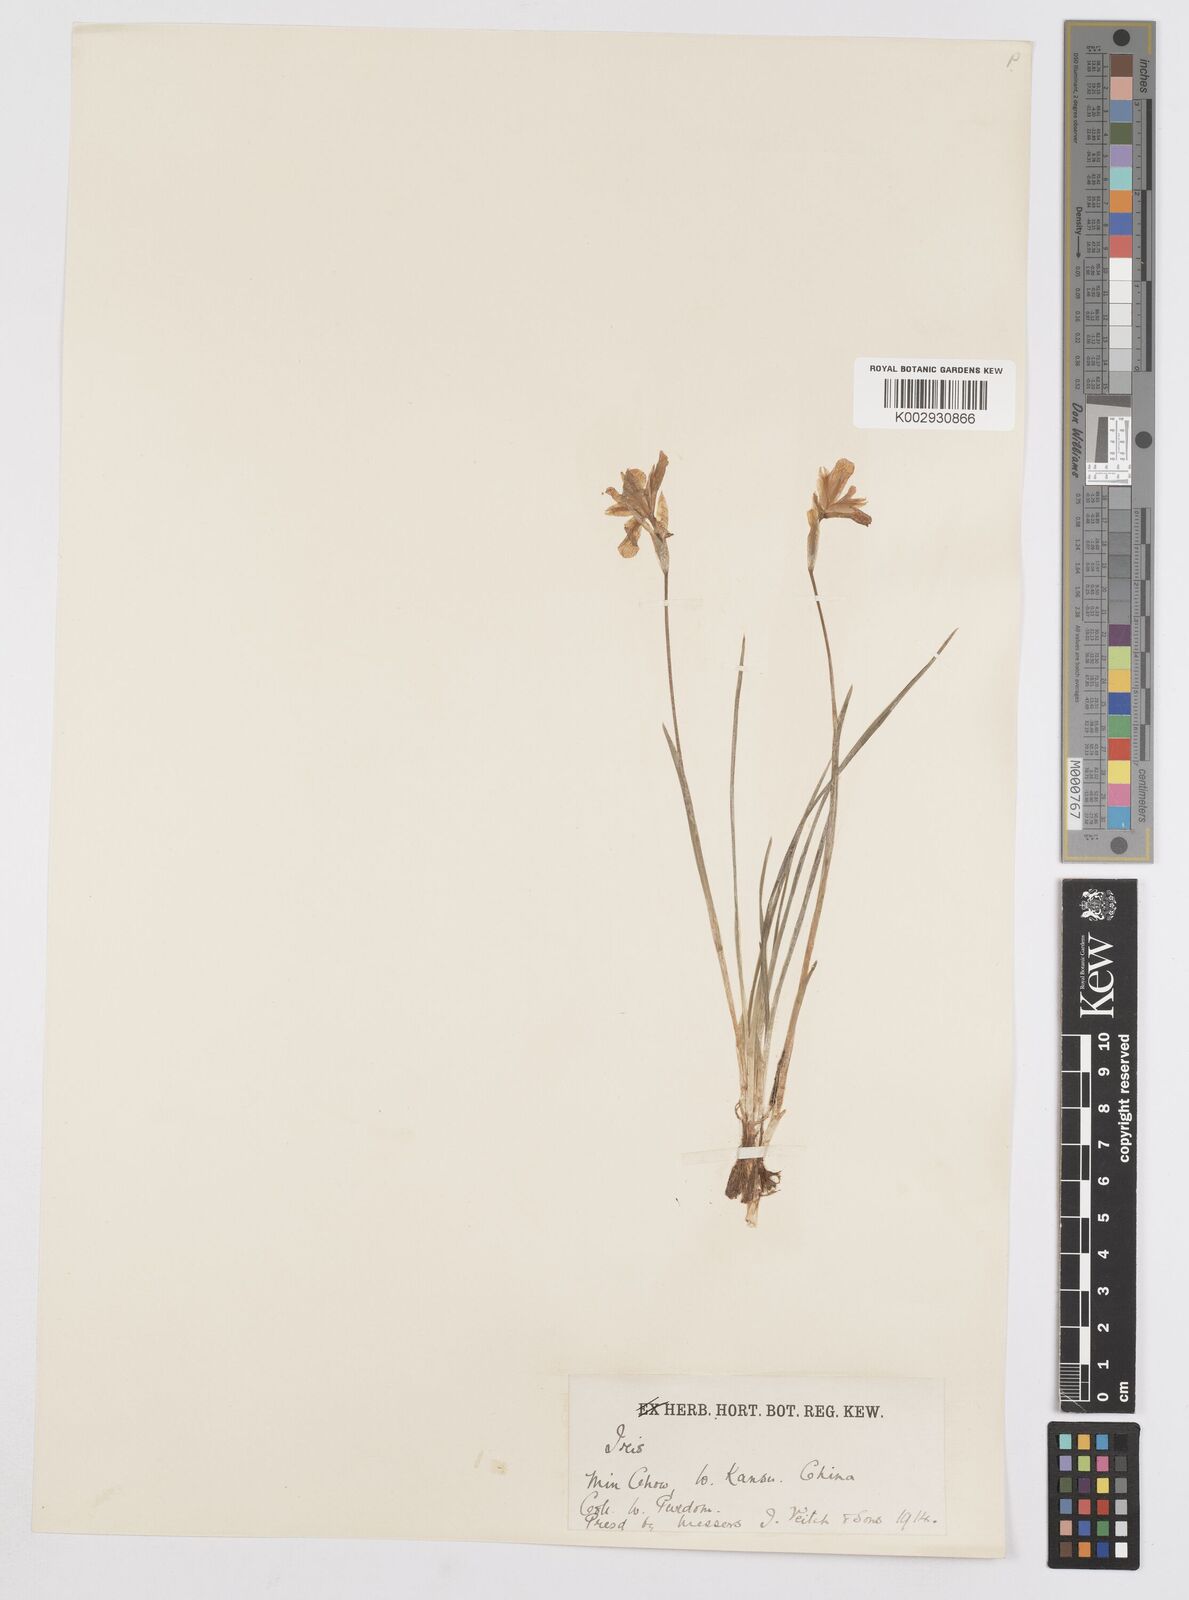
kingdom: Plantae
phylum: Tracheophyta
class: Liliopsida
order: Asparagales
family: Iridaceae
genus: Iris
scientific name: Iris goniocarpa
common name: Angular-fruit iris
